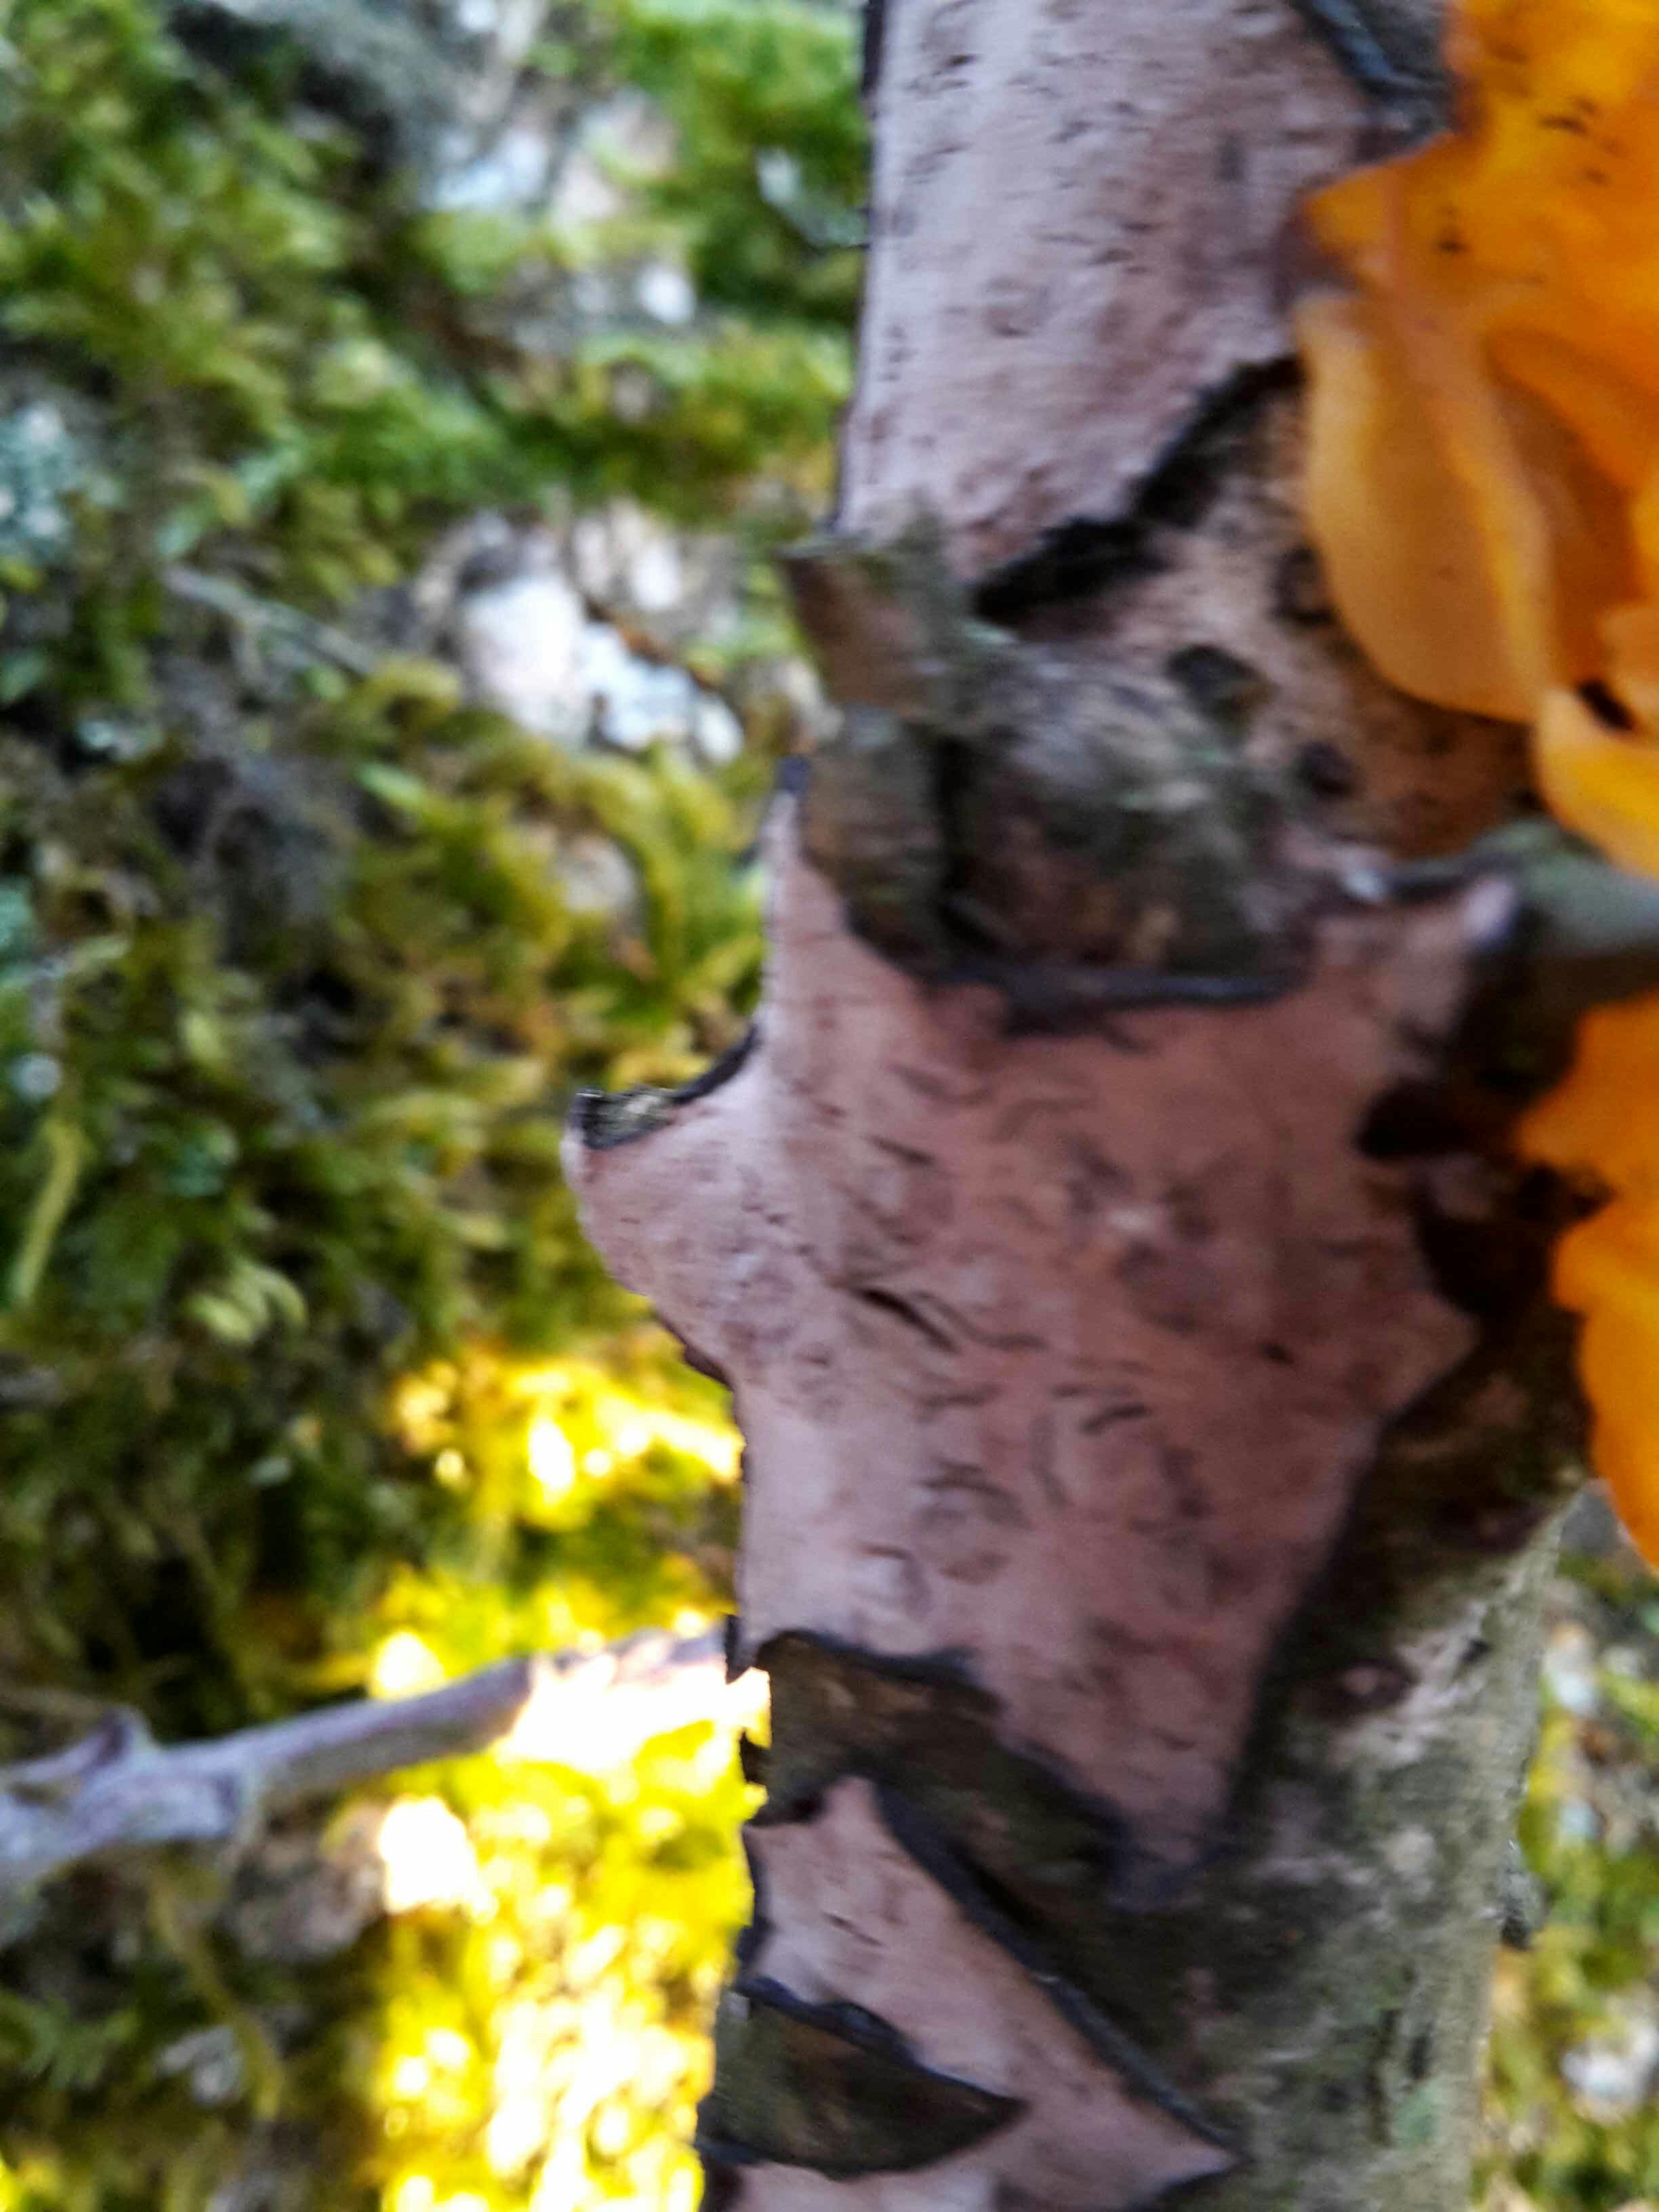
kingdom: Fungi
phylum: Basidiomycota
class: Agaricomycetes
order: Russulales
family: Peniophoraceae
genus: Peniophora
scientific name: Peniophora quercina
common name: ege-voksskind
